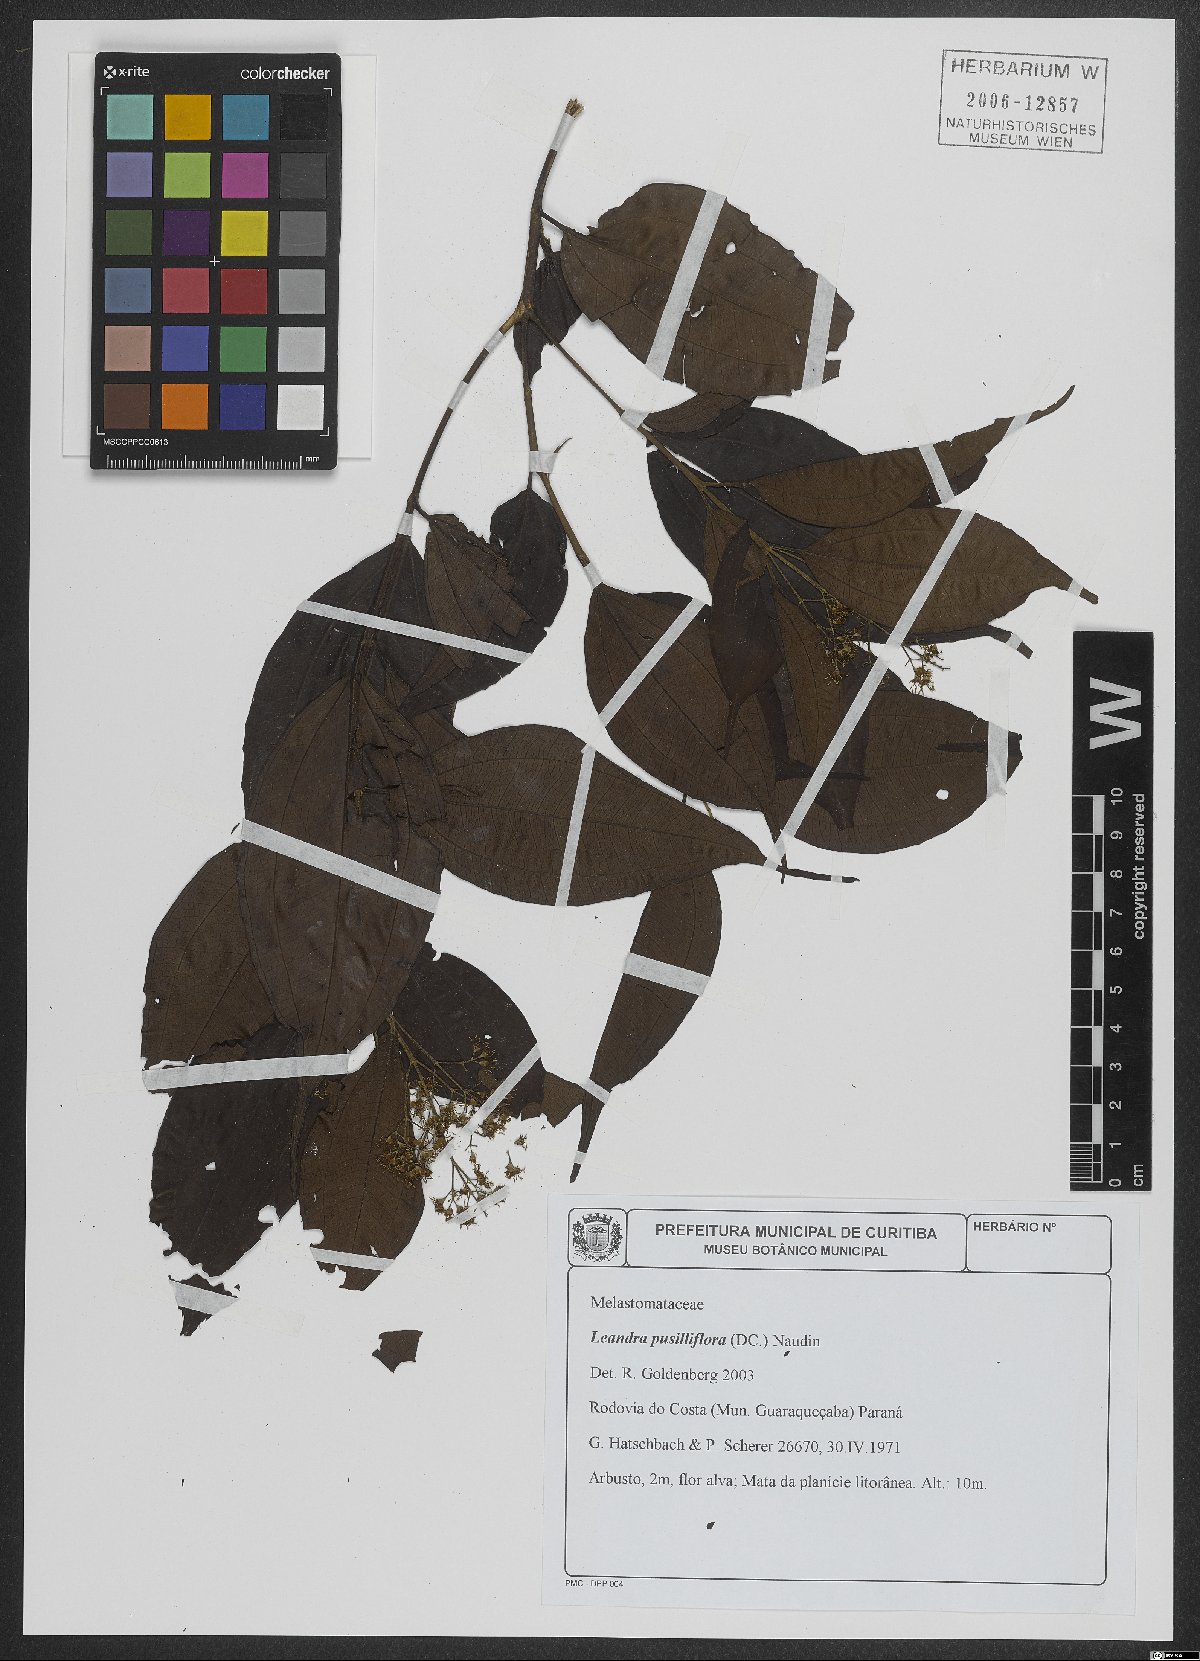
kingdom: Plantae
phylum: Tracheophyta
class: Magnoliopsida
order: Myrtales
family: Melastomataceae
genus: Miconia
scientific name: Miconia pusilliflora
